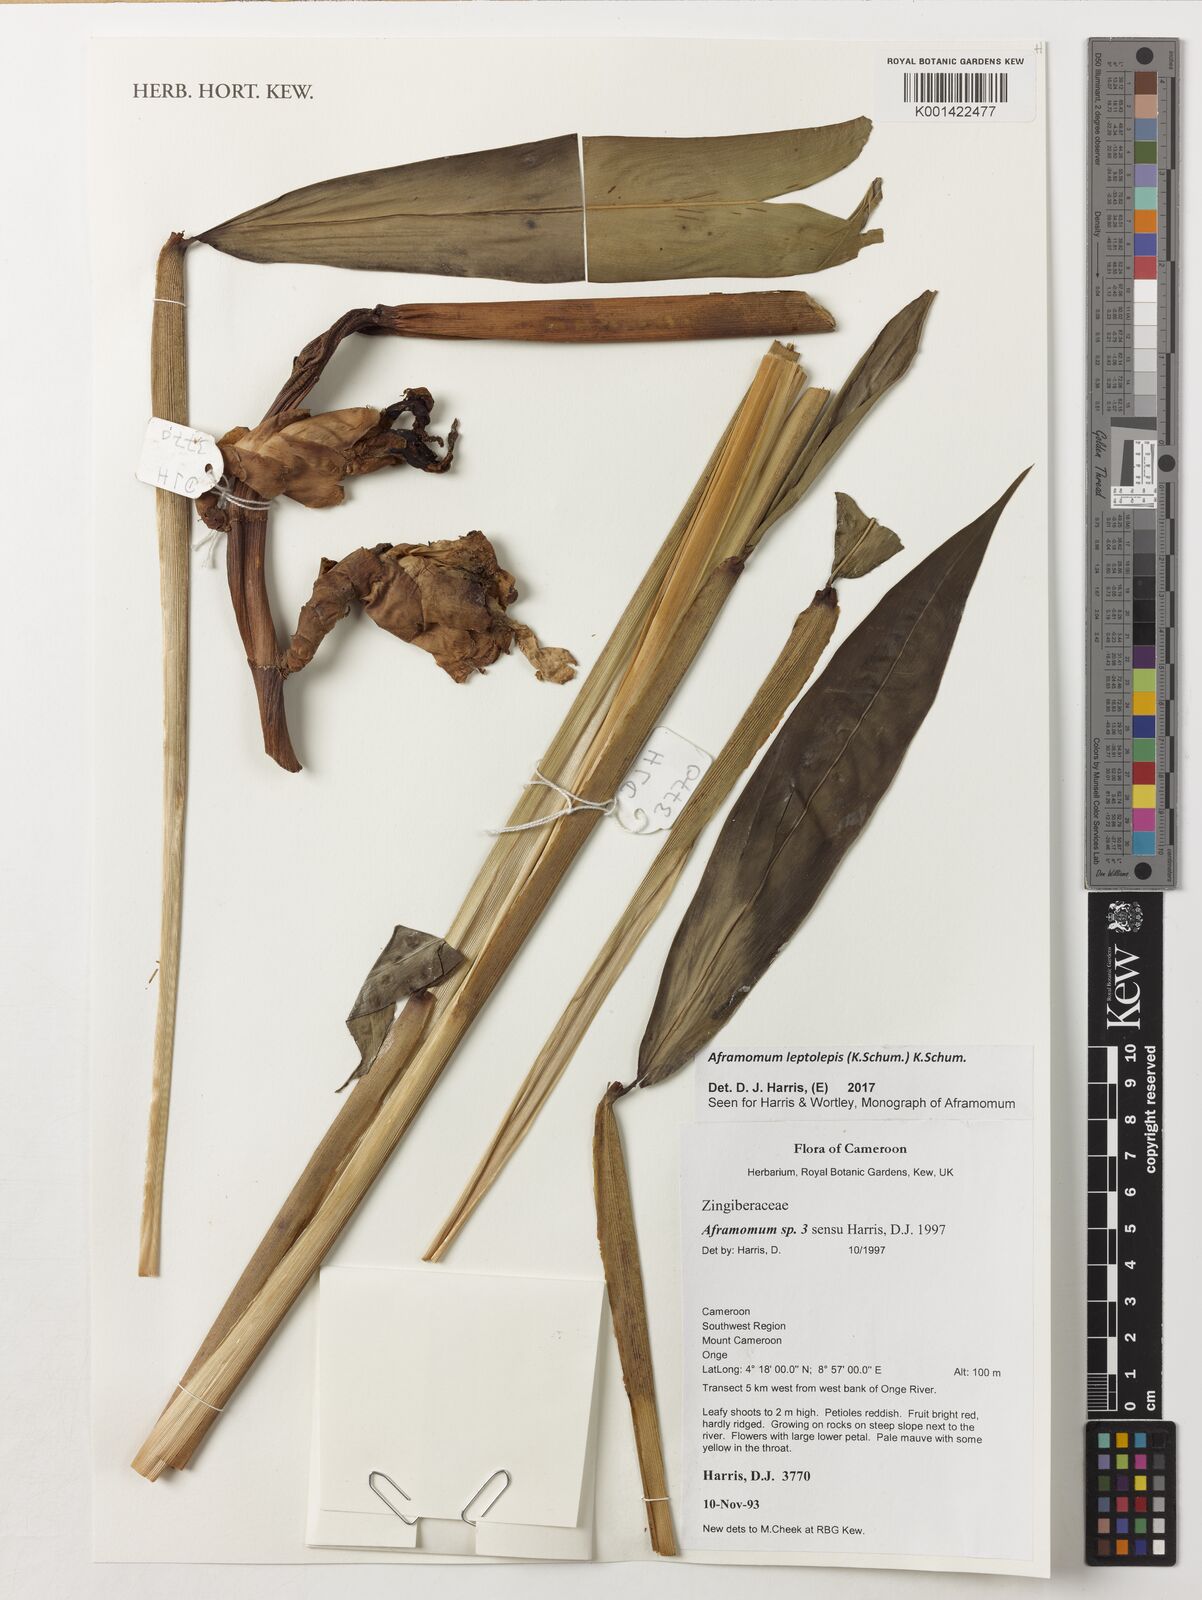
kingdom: Plantae
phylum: Tracheophyta
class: Liliopsida
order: Zingiberales
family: Zingiberaceae
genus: Aframomum
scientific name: Aframomum leptolepis
